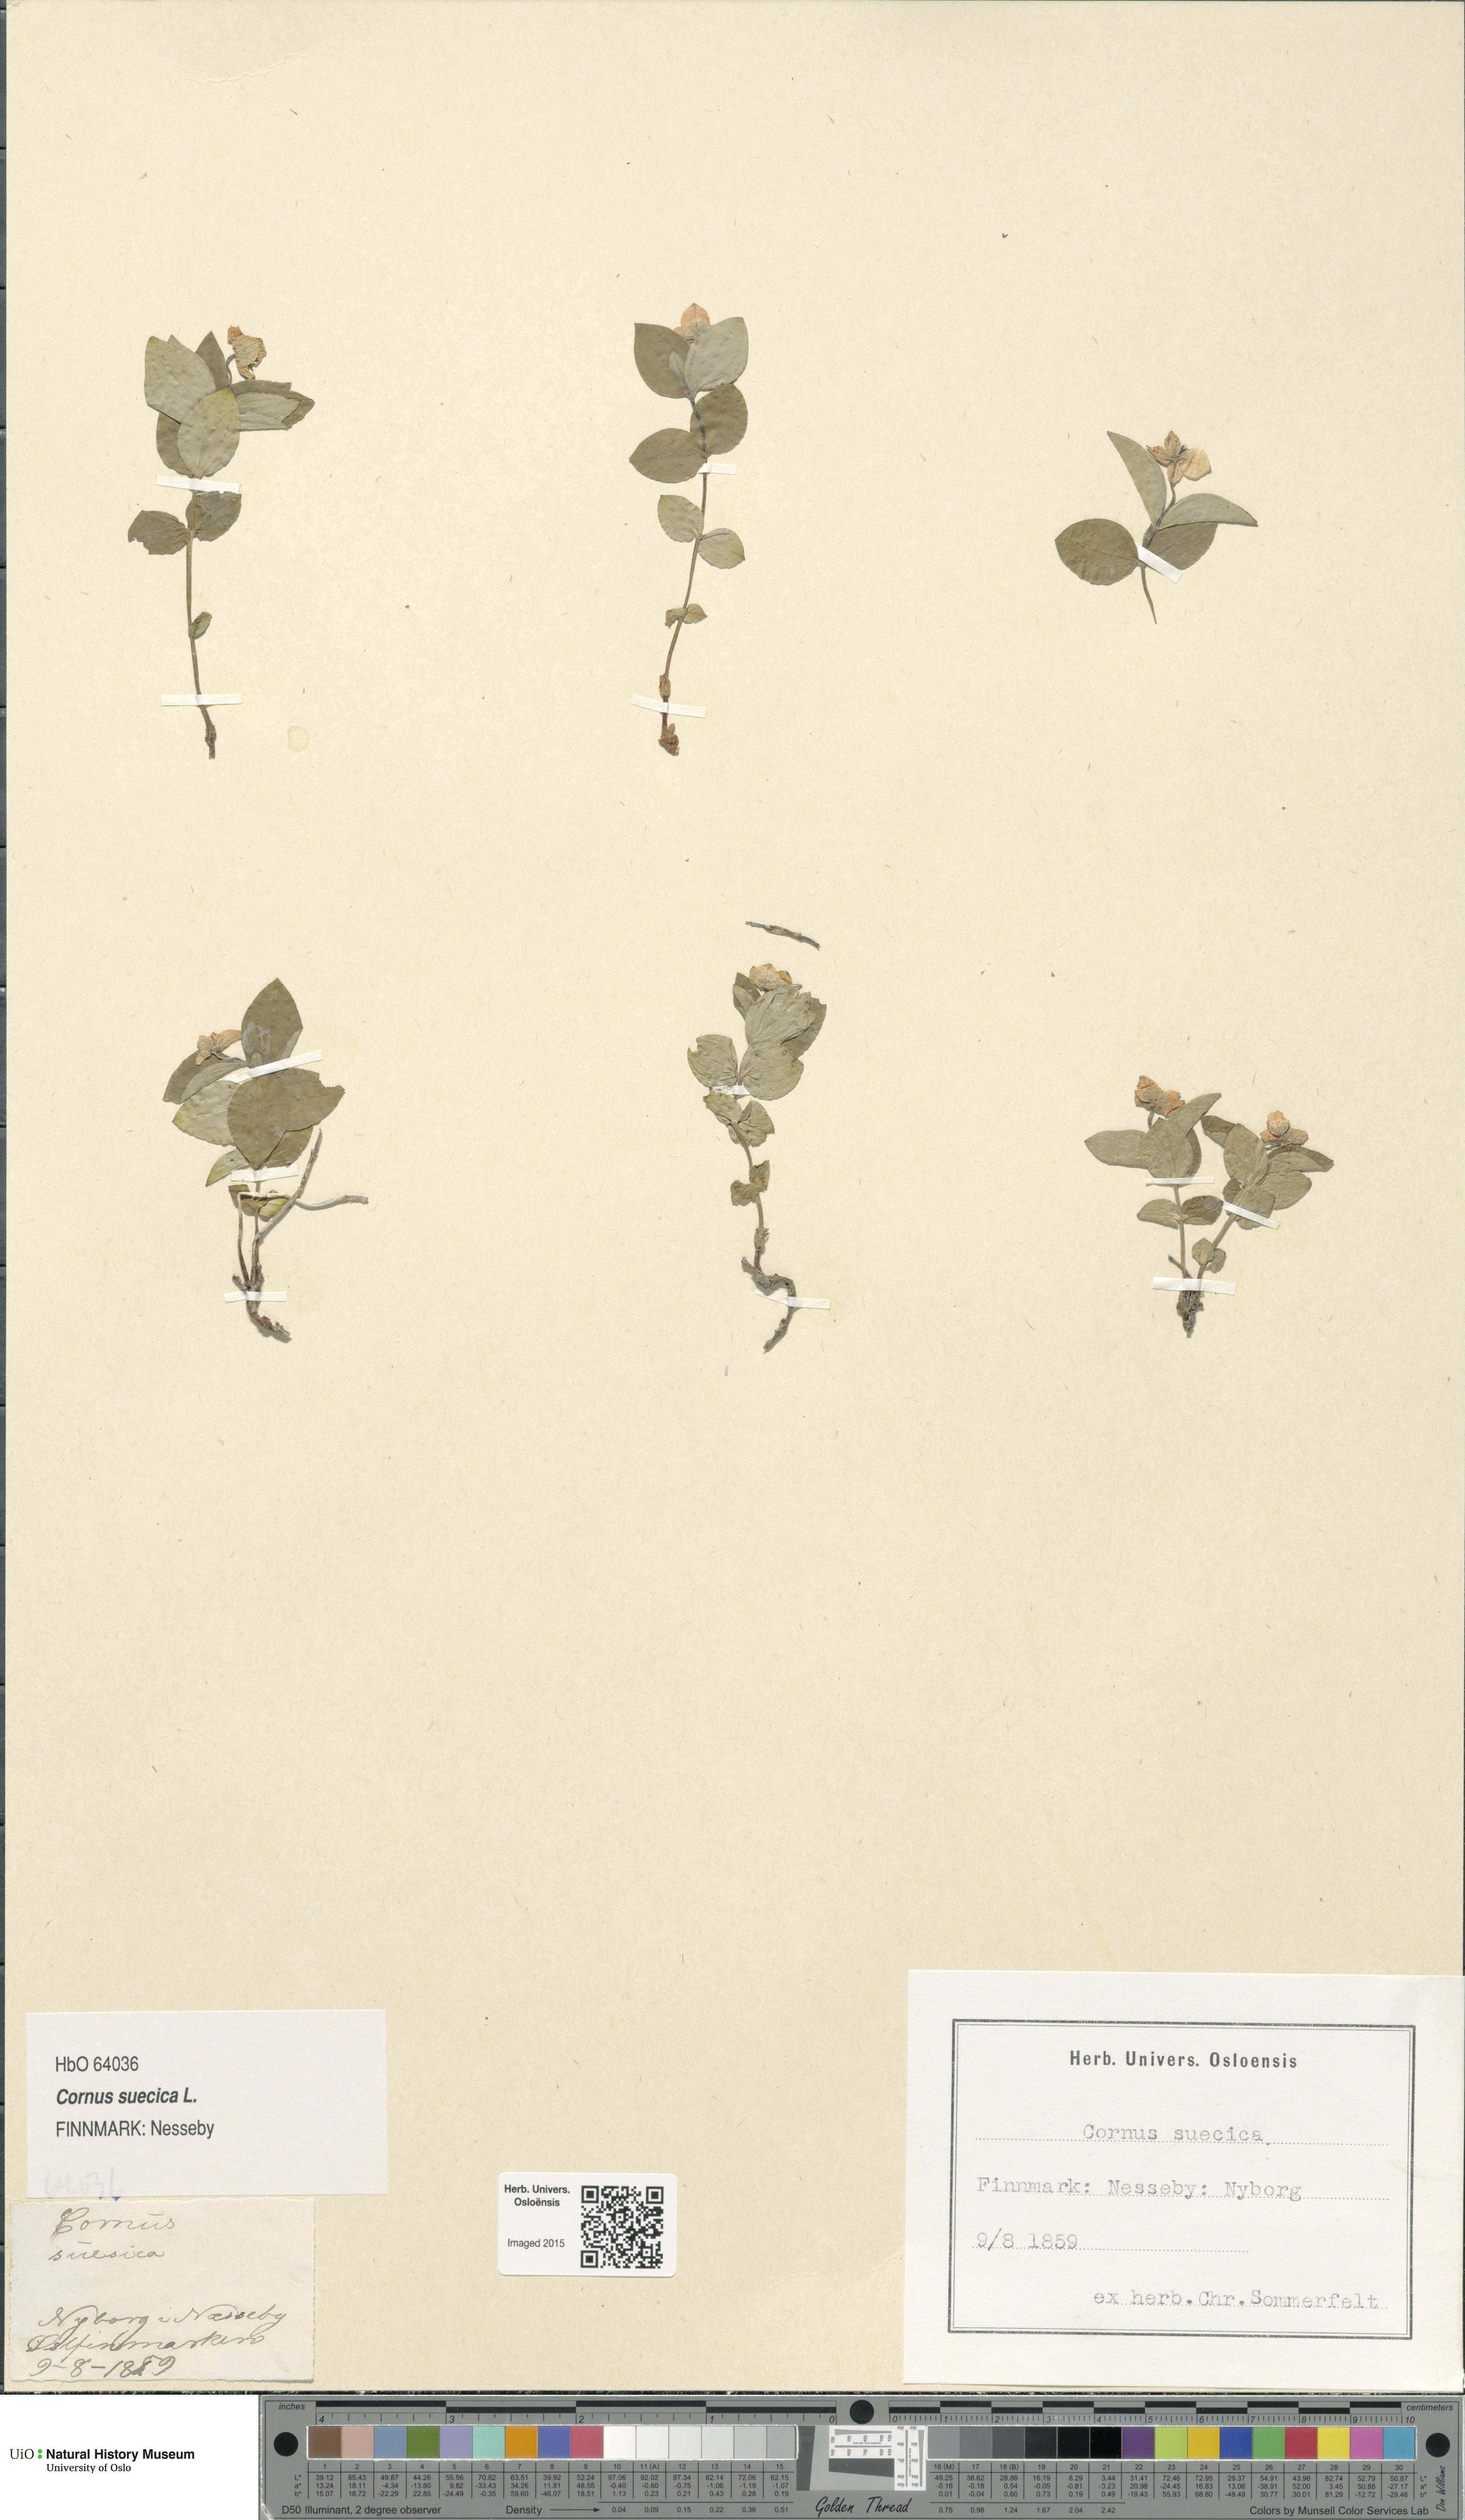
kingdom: Plantae
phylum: Tracheophyta
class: Magnoliopsida
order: Cornales
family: Cornaceae
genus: Cornus
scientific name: Cornus suecica
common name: Dwarf cornel
